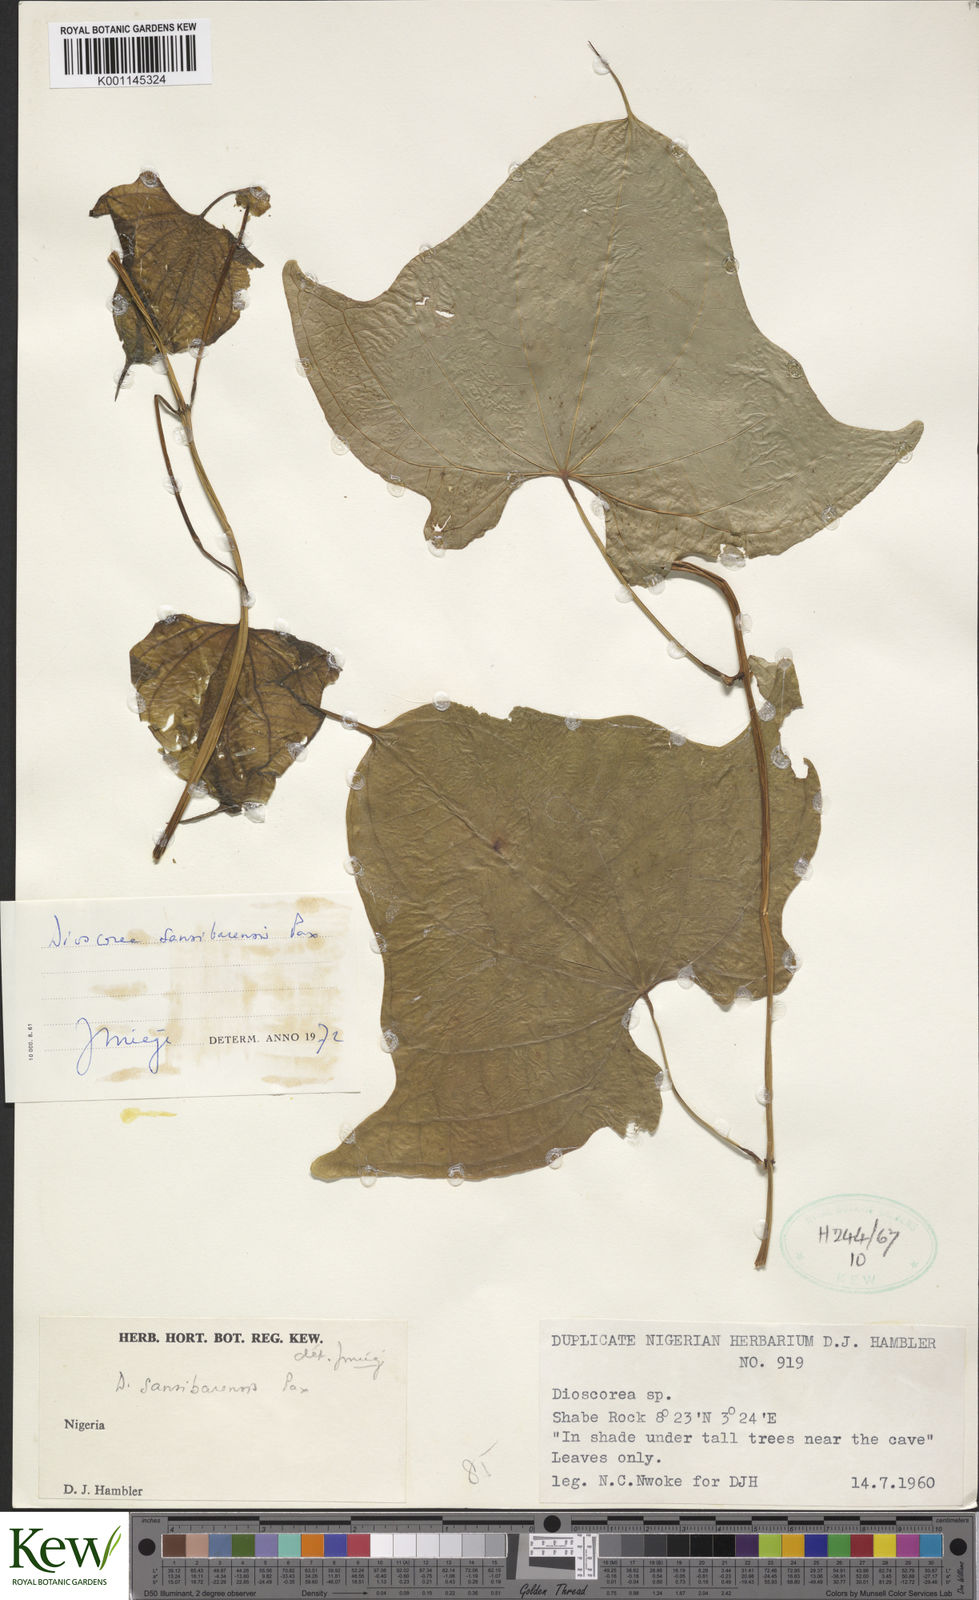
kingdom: Plantae
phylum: Tracheophyta
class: Liliopsida
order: Dioscoreales
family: Dioscoreaceae
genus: Dioscorea
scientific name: Dioscorea sansibarensis
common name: Zanzibar yam
